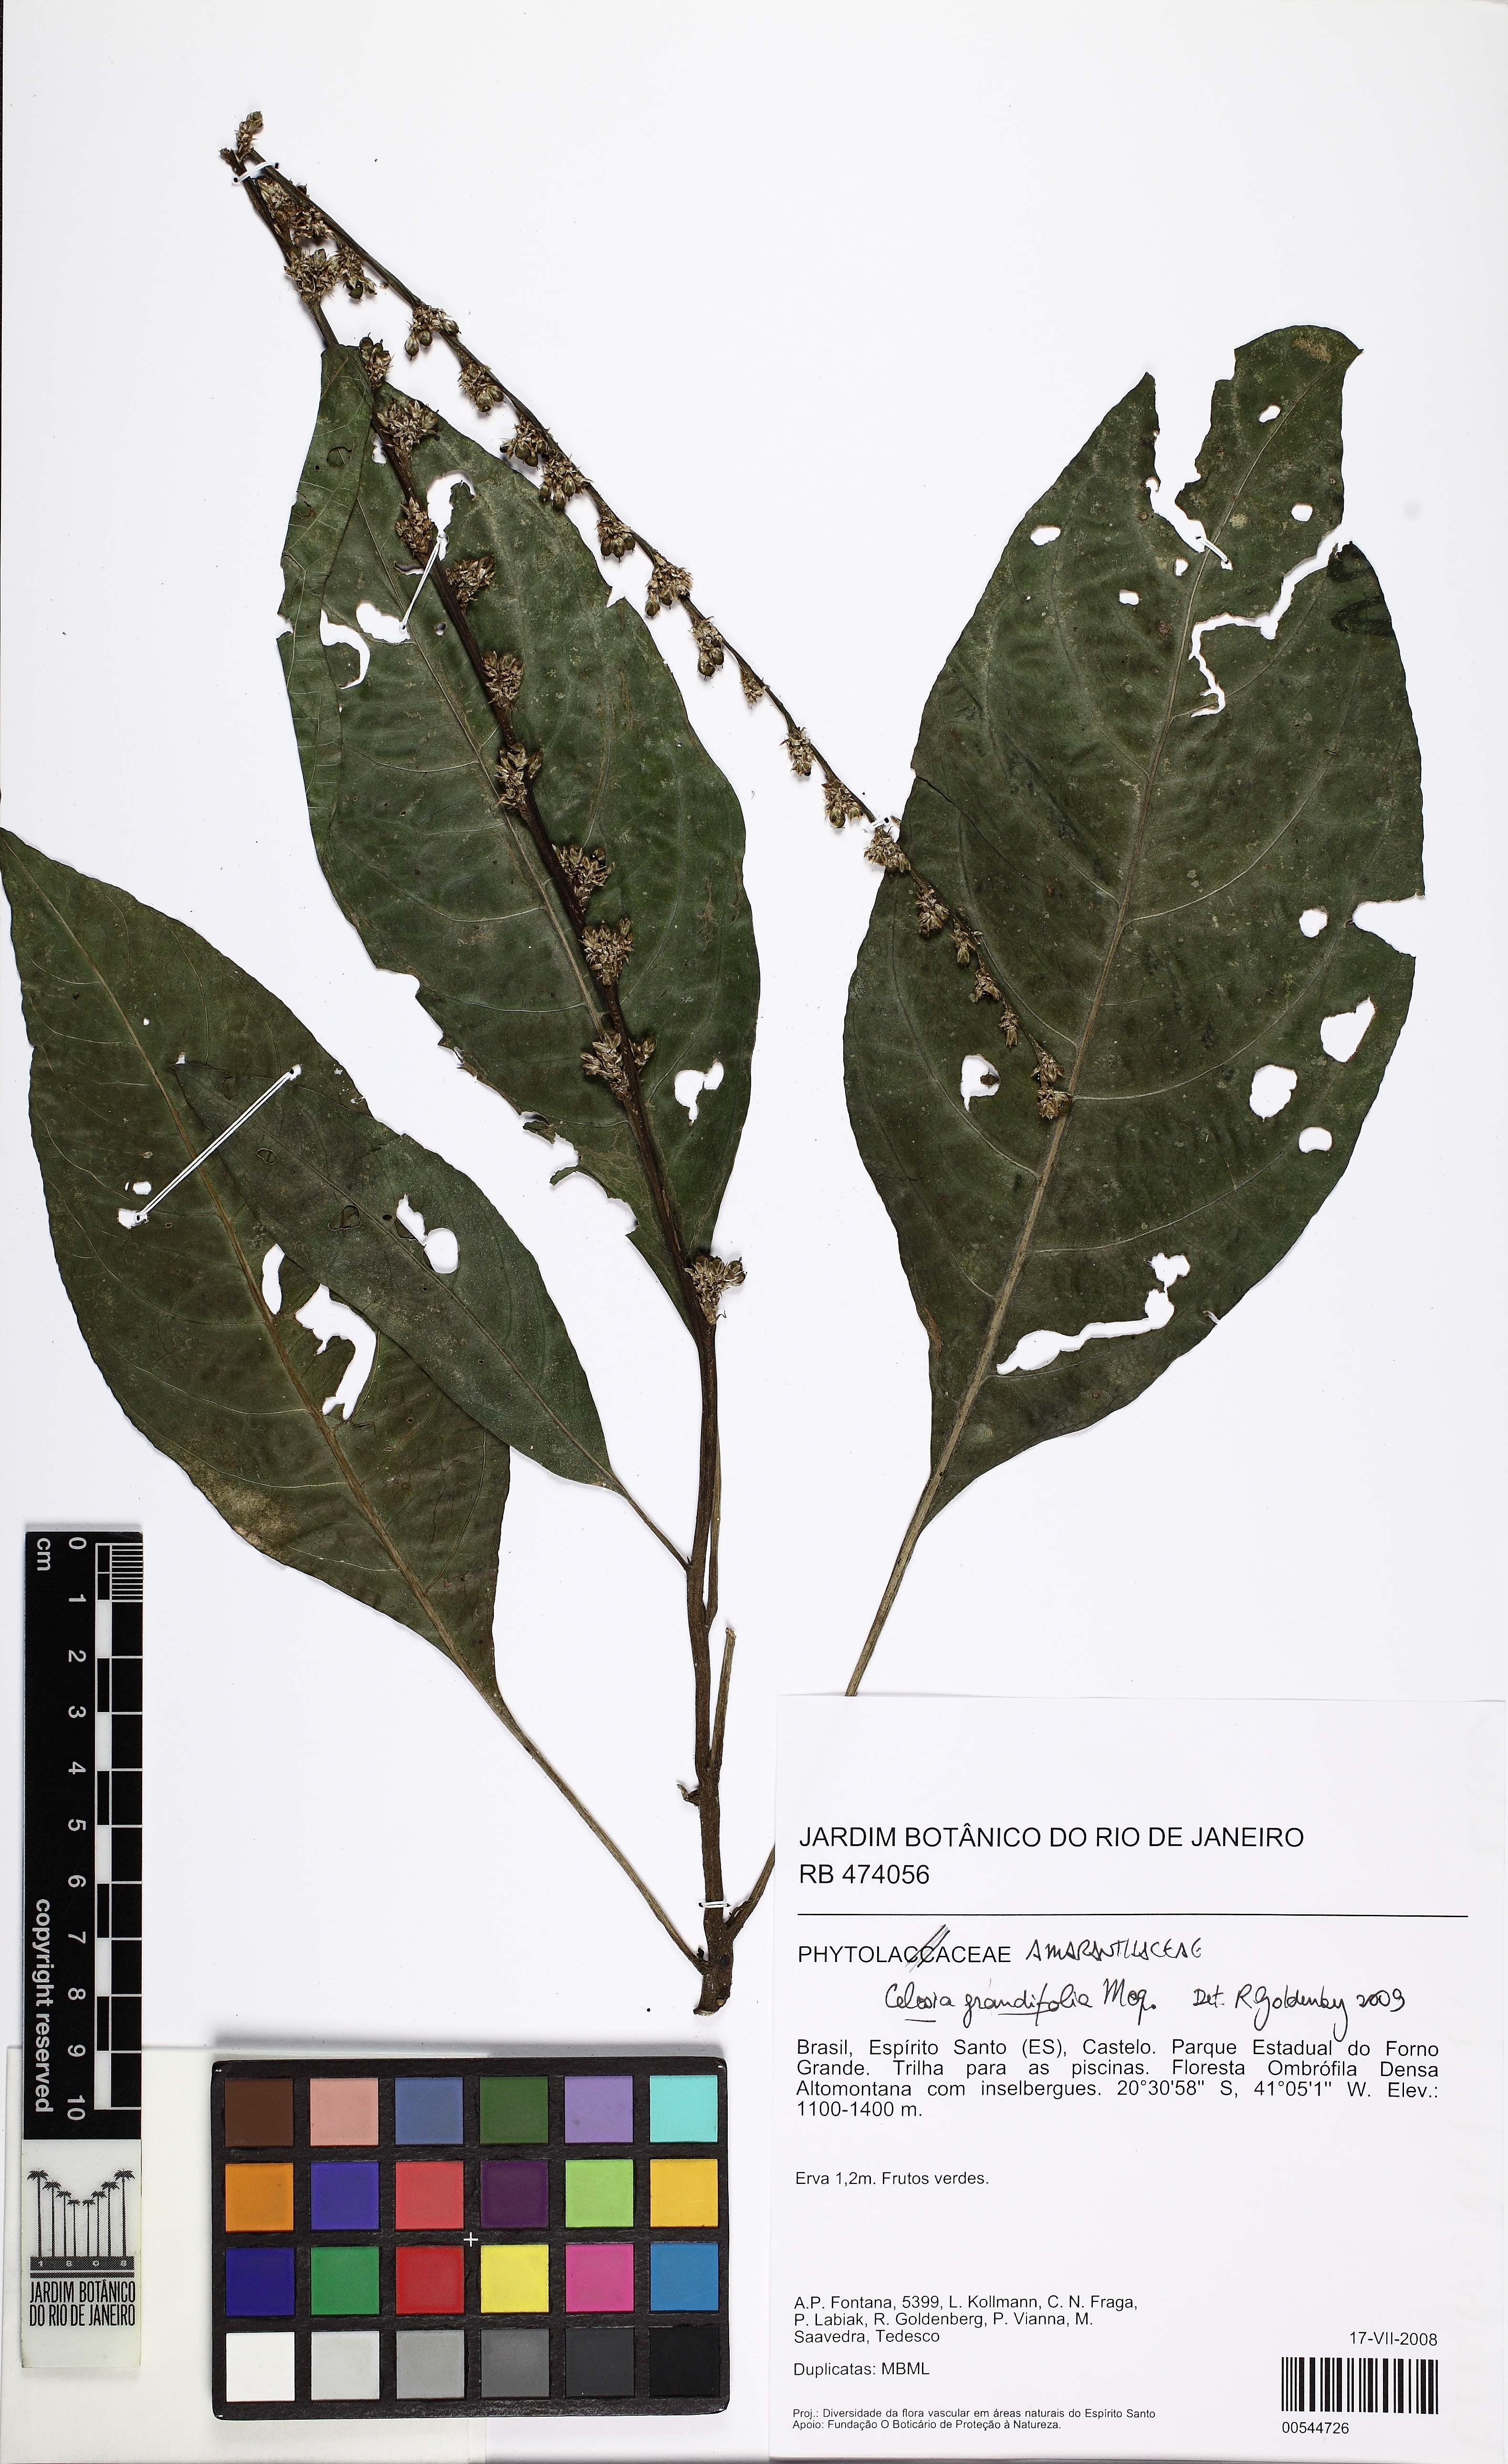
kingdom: Plantae
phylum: Tracheophyta
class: Magnoliopsida
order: Caryophyllales
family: Amaranthaceae
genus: Celosia
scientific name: Celosia grandifolia
